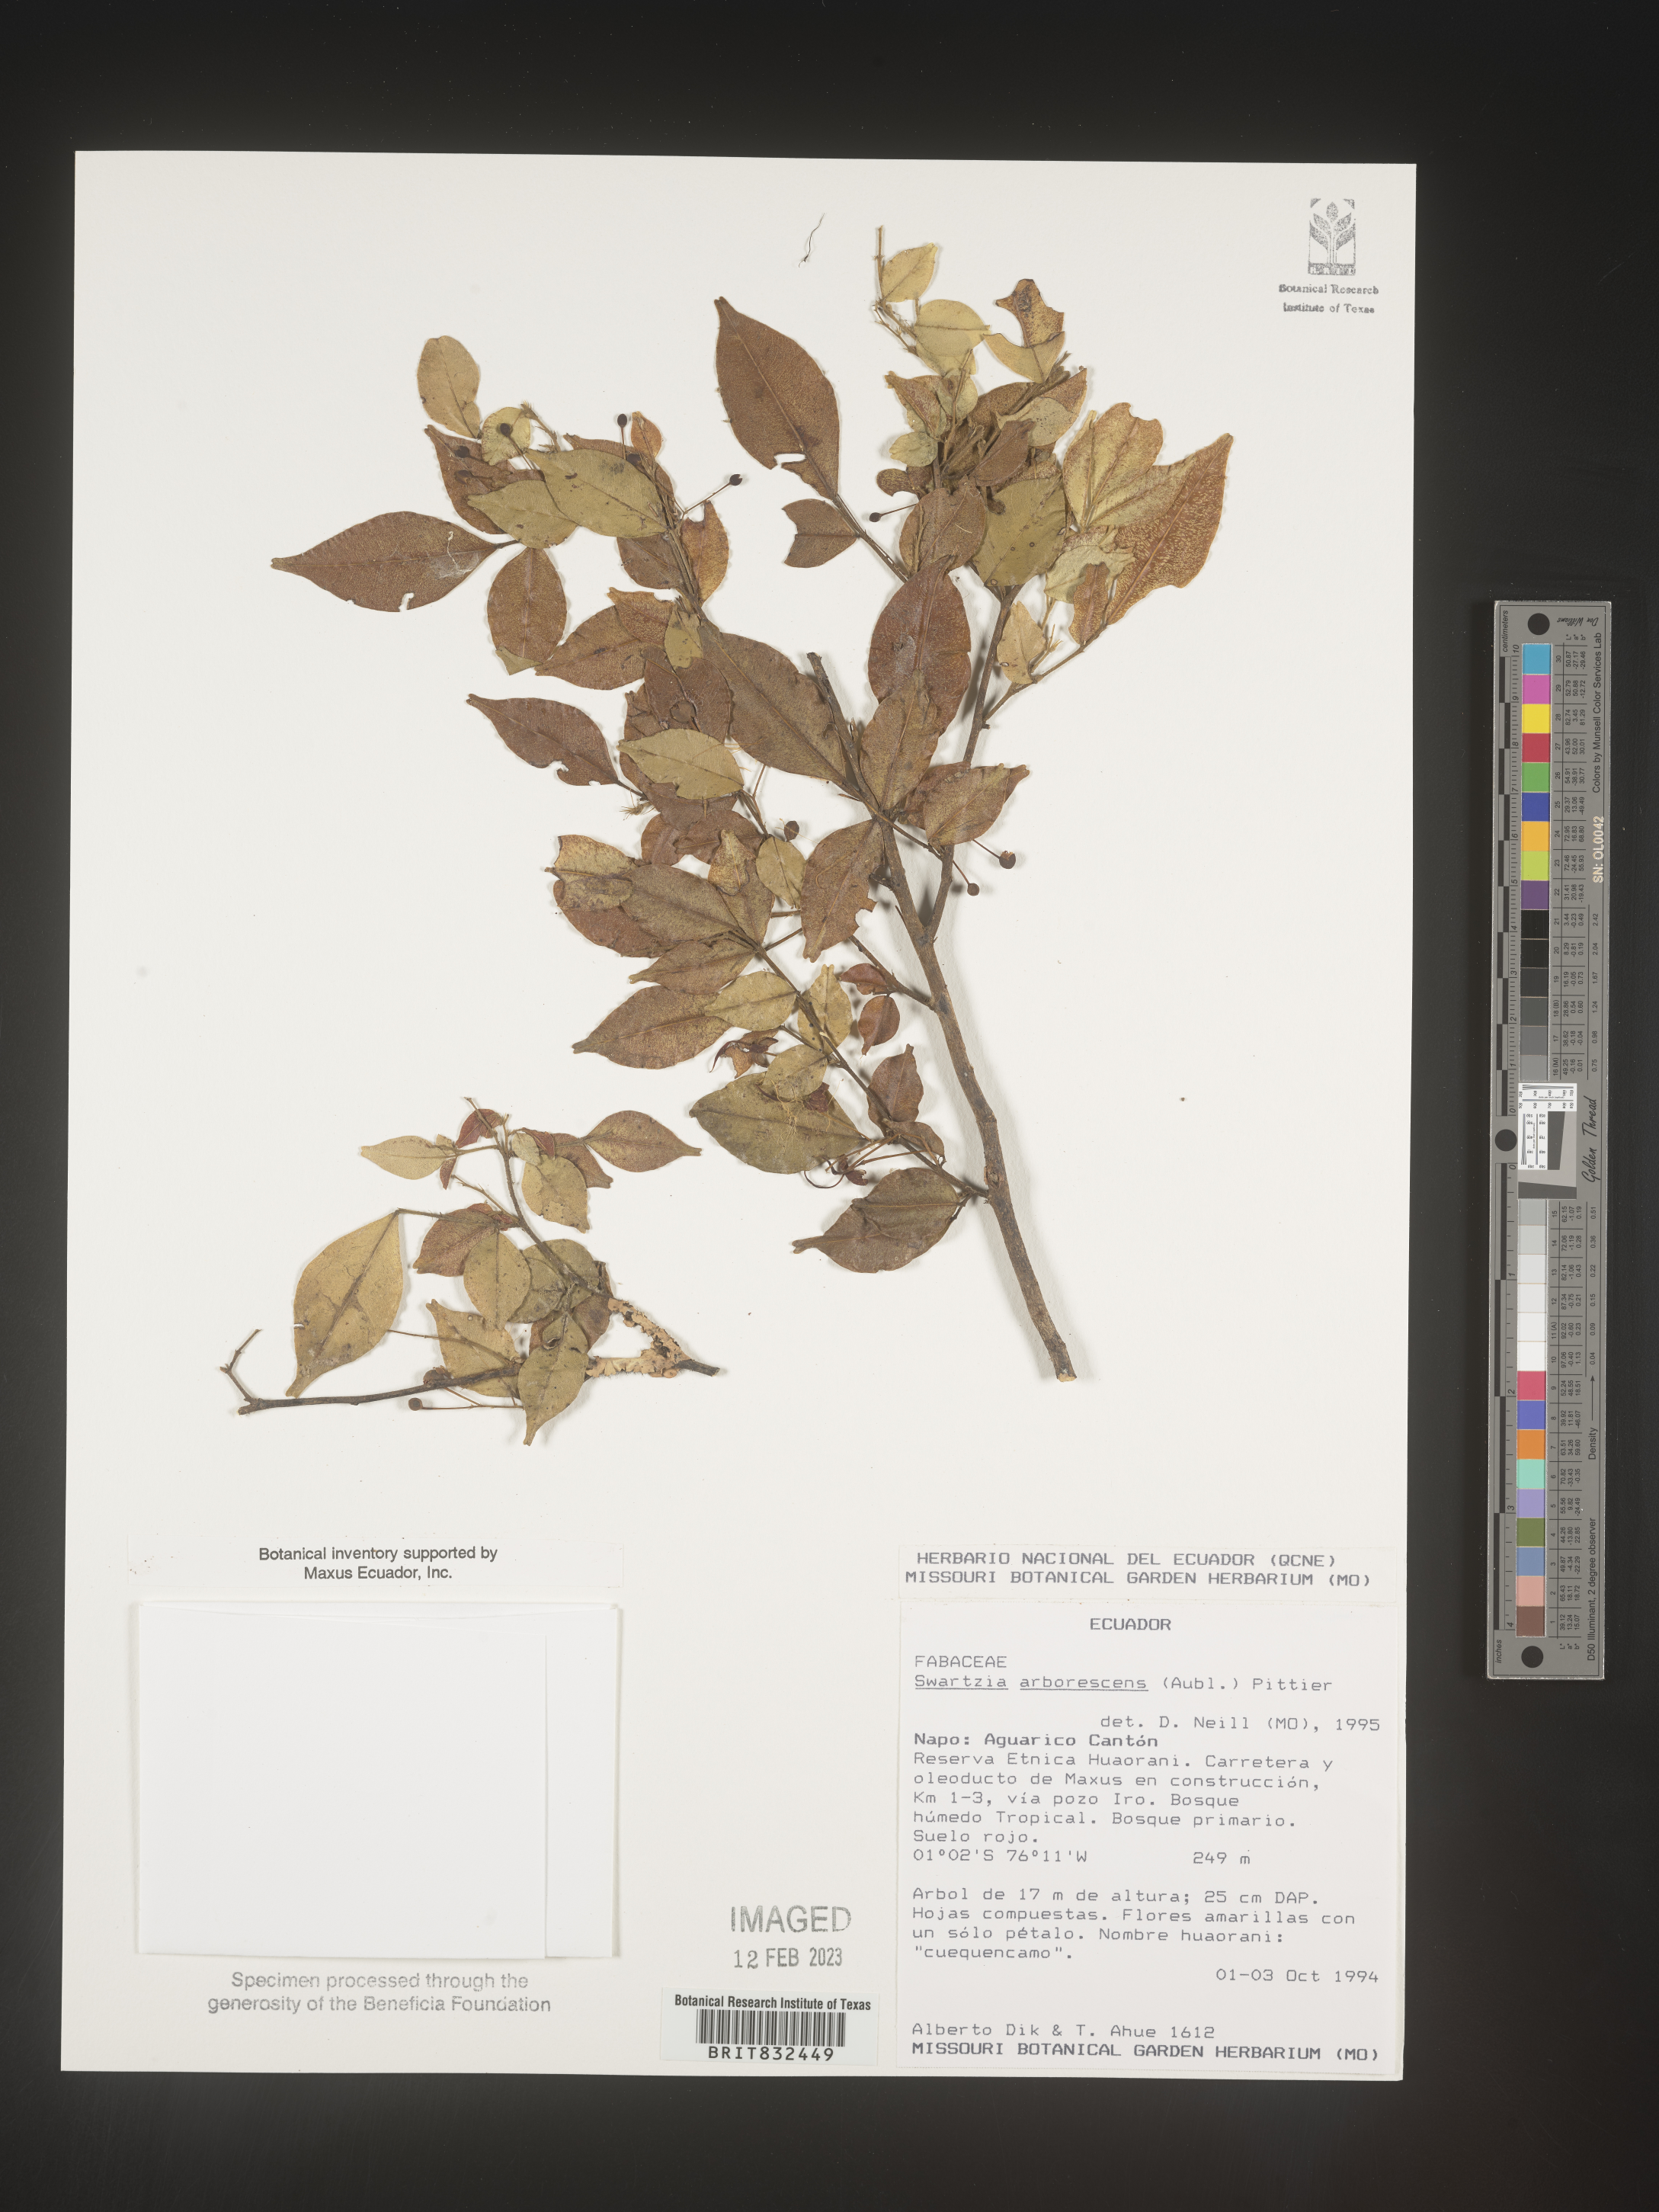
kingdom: Plantae
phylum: Tracheophyta
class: Magnoliopsida
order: Fabales
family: Fabaceae
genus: Swartzia
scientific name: Swartzia
